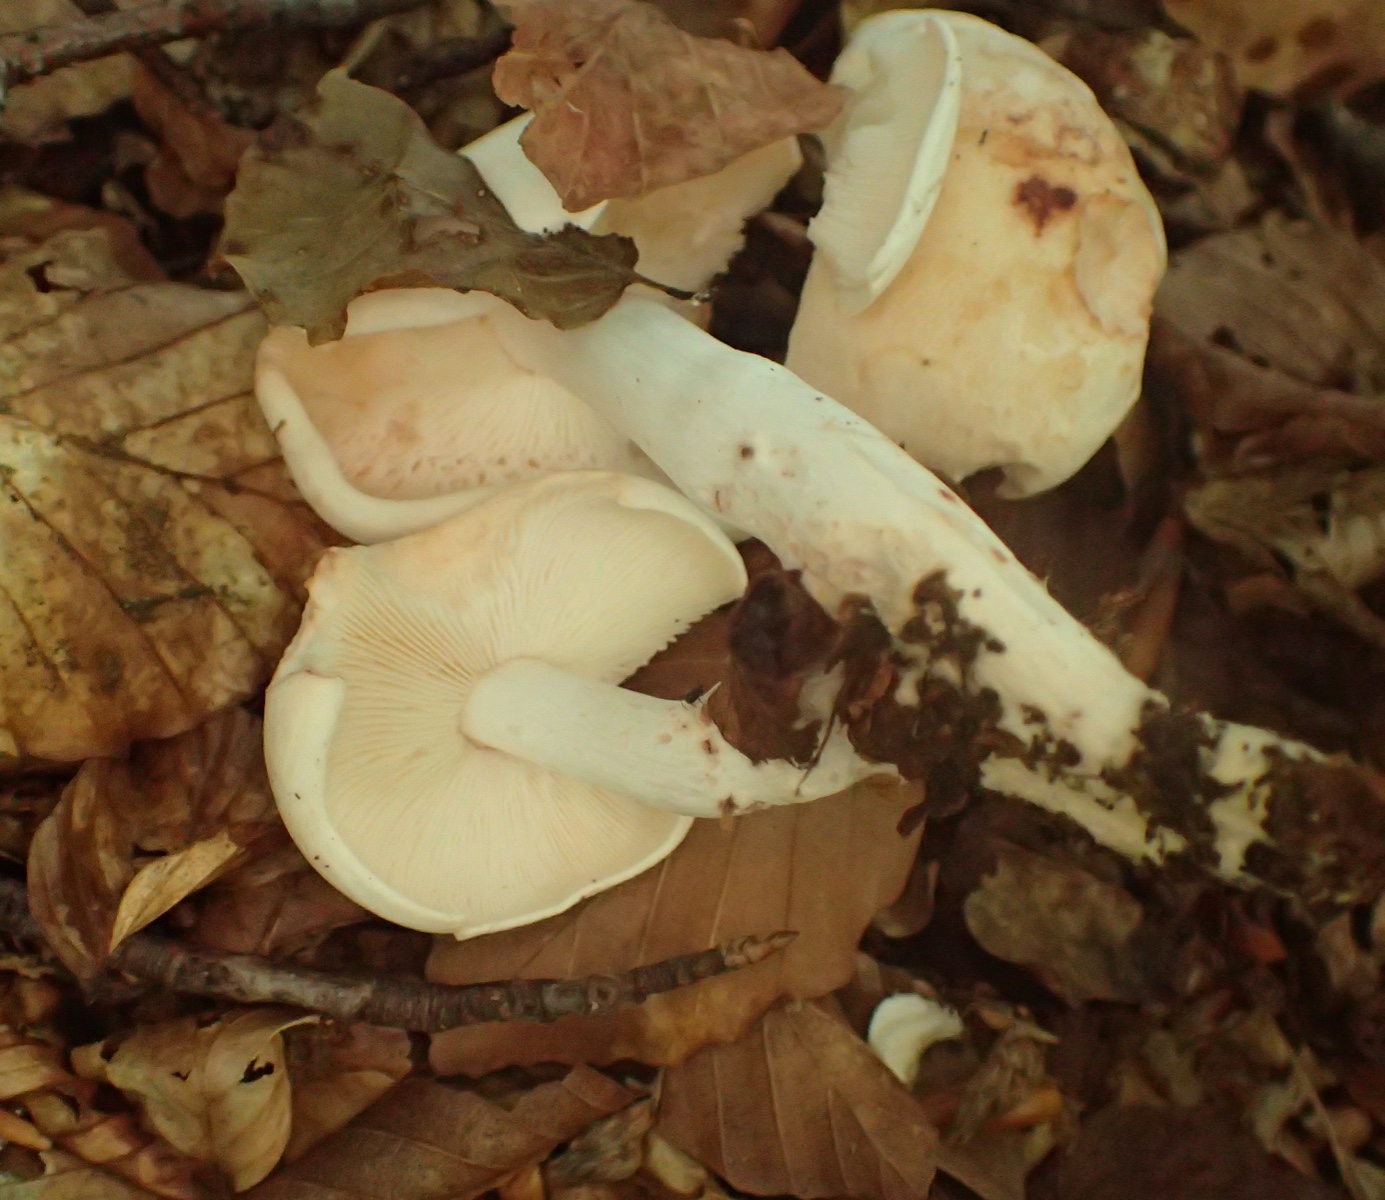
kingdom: Fungi
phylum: Basidiomycota
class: Agaricomycetes
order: Agaricales
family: Omphalotaceae
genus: Rhodocollybia
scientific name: Rhodocollybia maculata
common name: plettet fladhat
